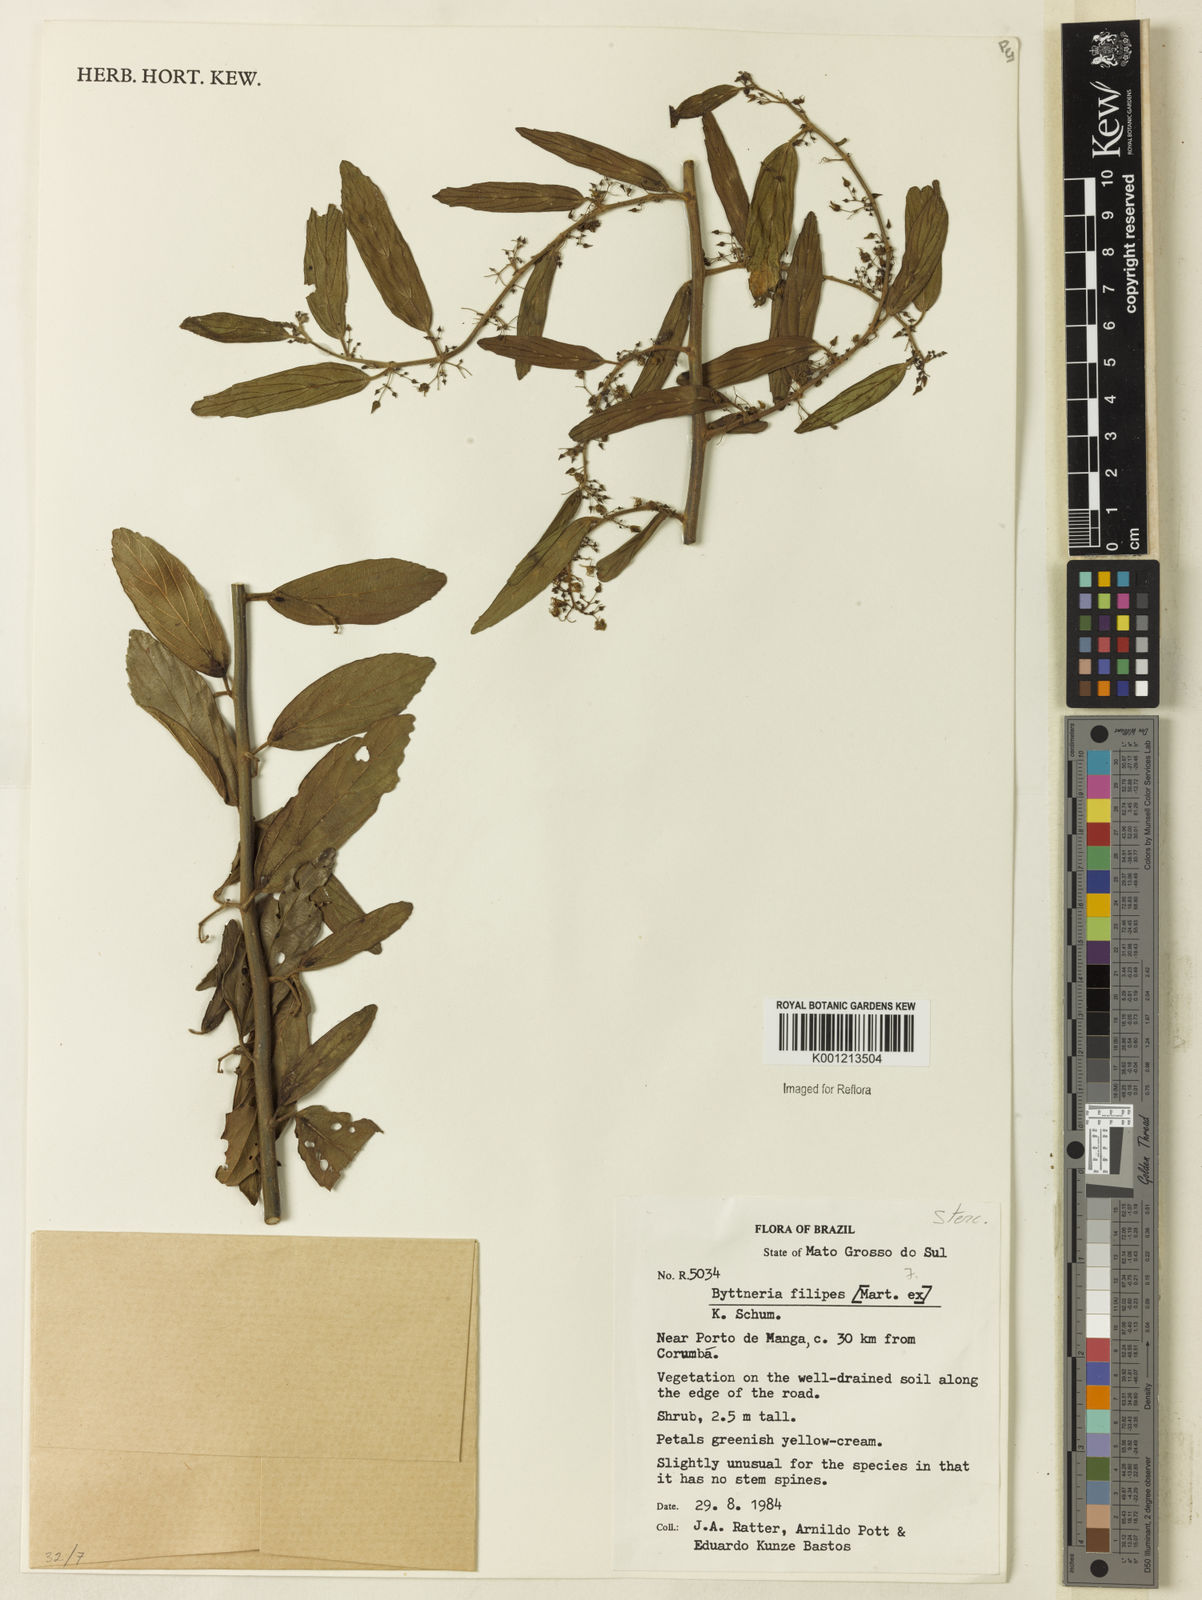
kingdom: Plantae
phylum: Tracheophyta
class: Magnoliopsida
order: Malvales
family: Malvaceae
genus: Byttneria
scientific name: Byttneria filipes
